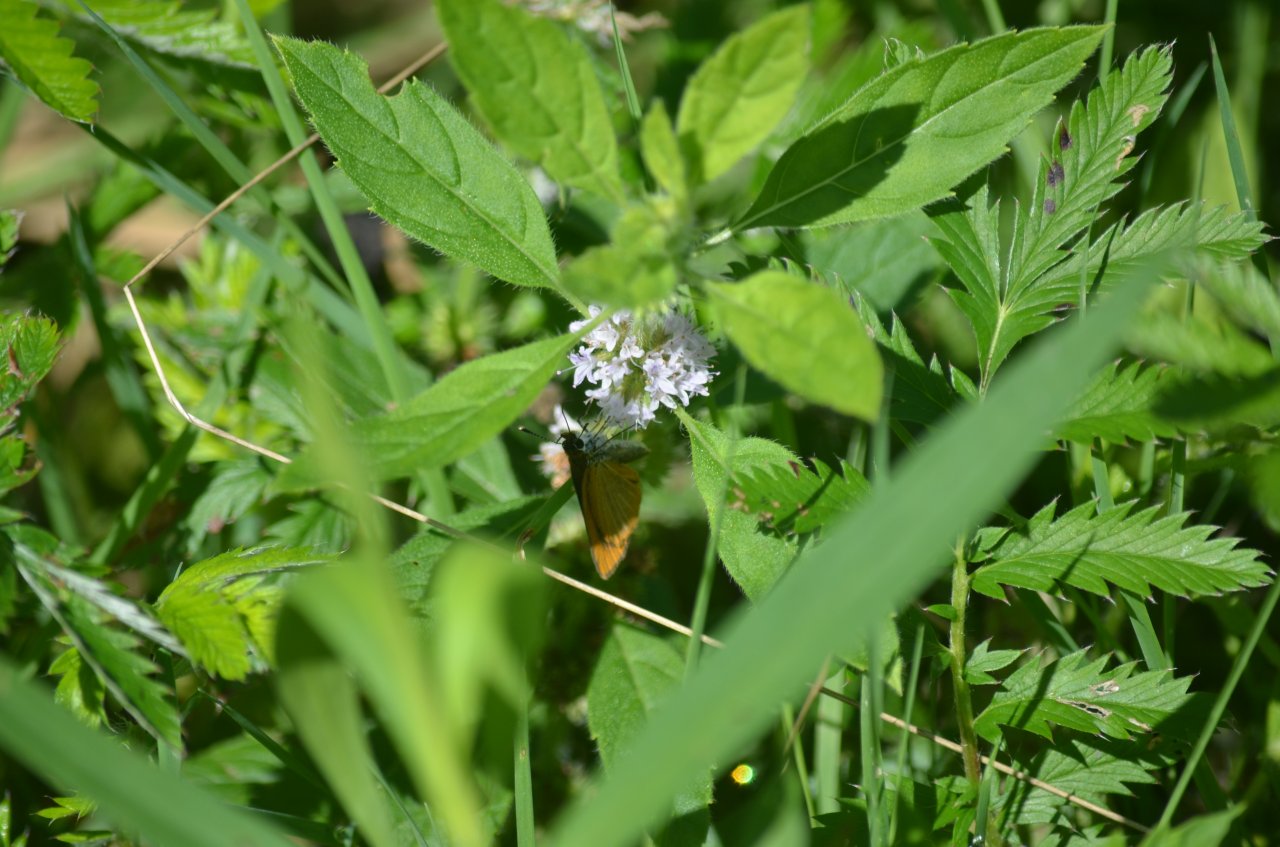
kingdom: Animalia
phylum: Arthropoda
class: Insecta
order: Lepidoptera
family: Hesperiidae
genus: Ancyloxypha
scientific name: Ancyloxypha numitor
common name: Least Skipper
